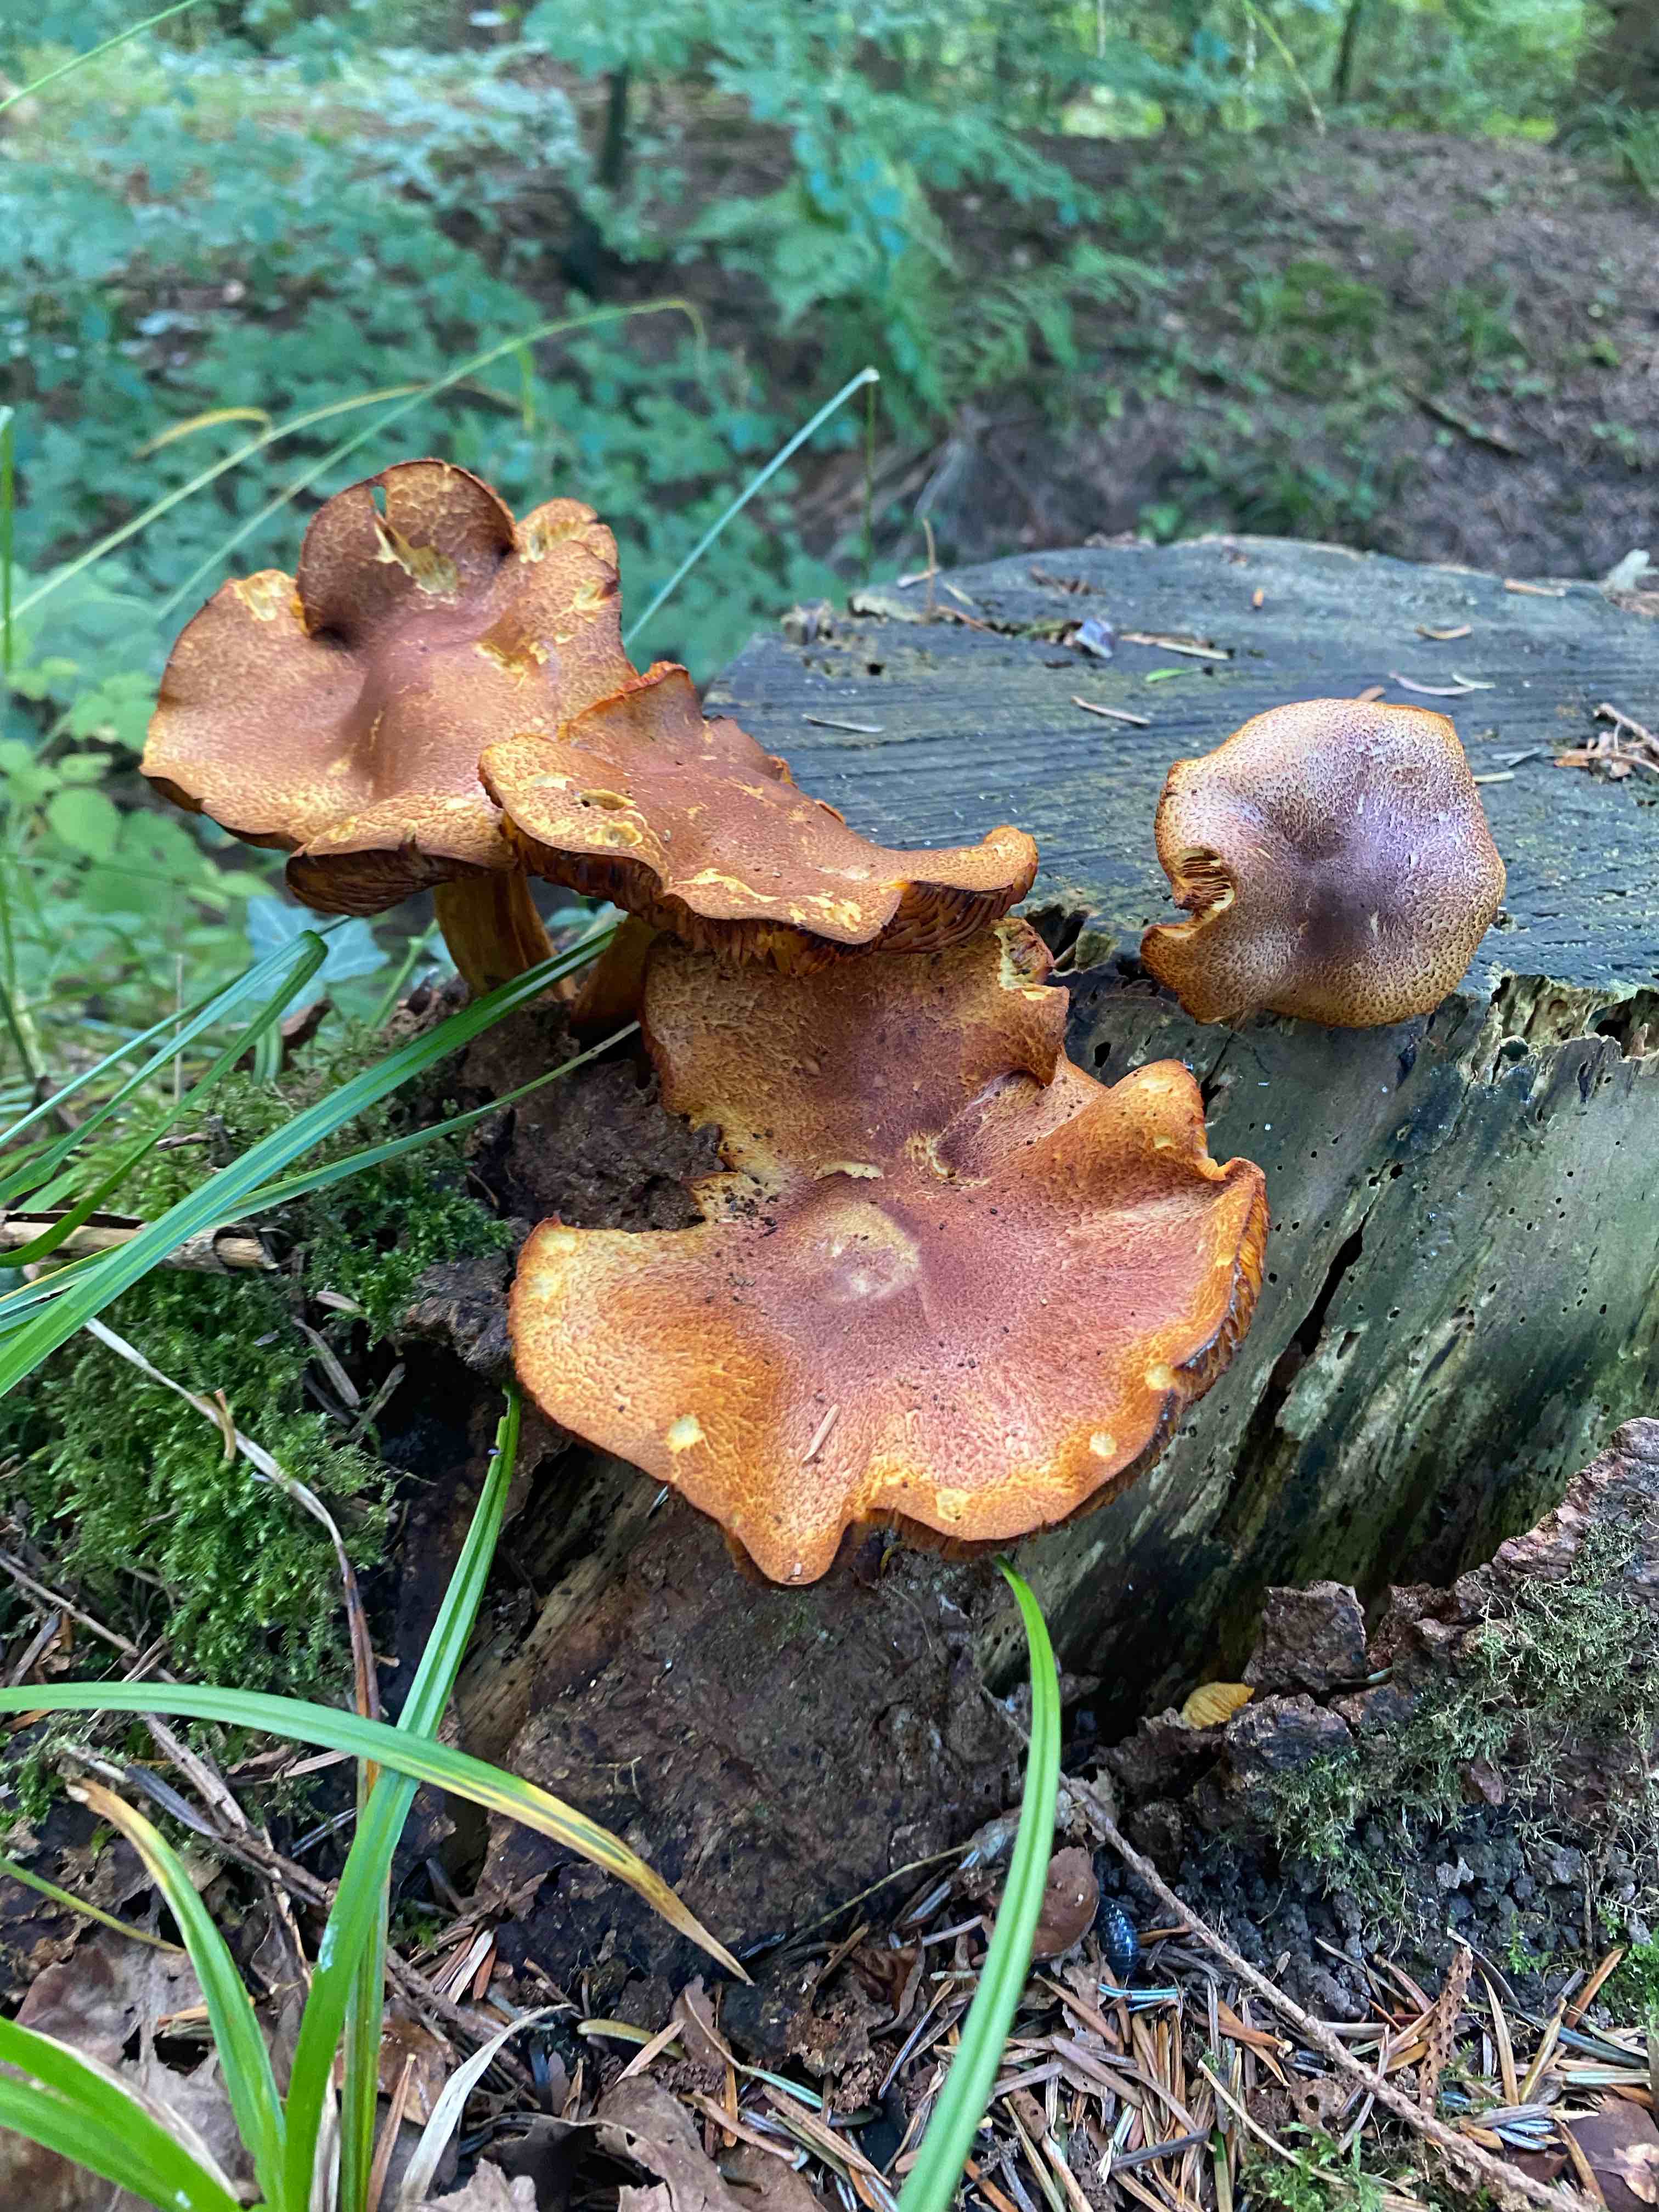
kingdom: Fungi
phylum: Basidiomycota
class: Agaricomycetes
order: Agaricales
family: Tricholomataceae
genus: Tricholomopsis
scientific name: Tricholomopsis rutilans
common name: purpur-væbnerhat
